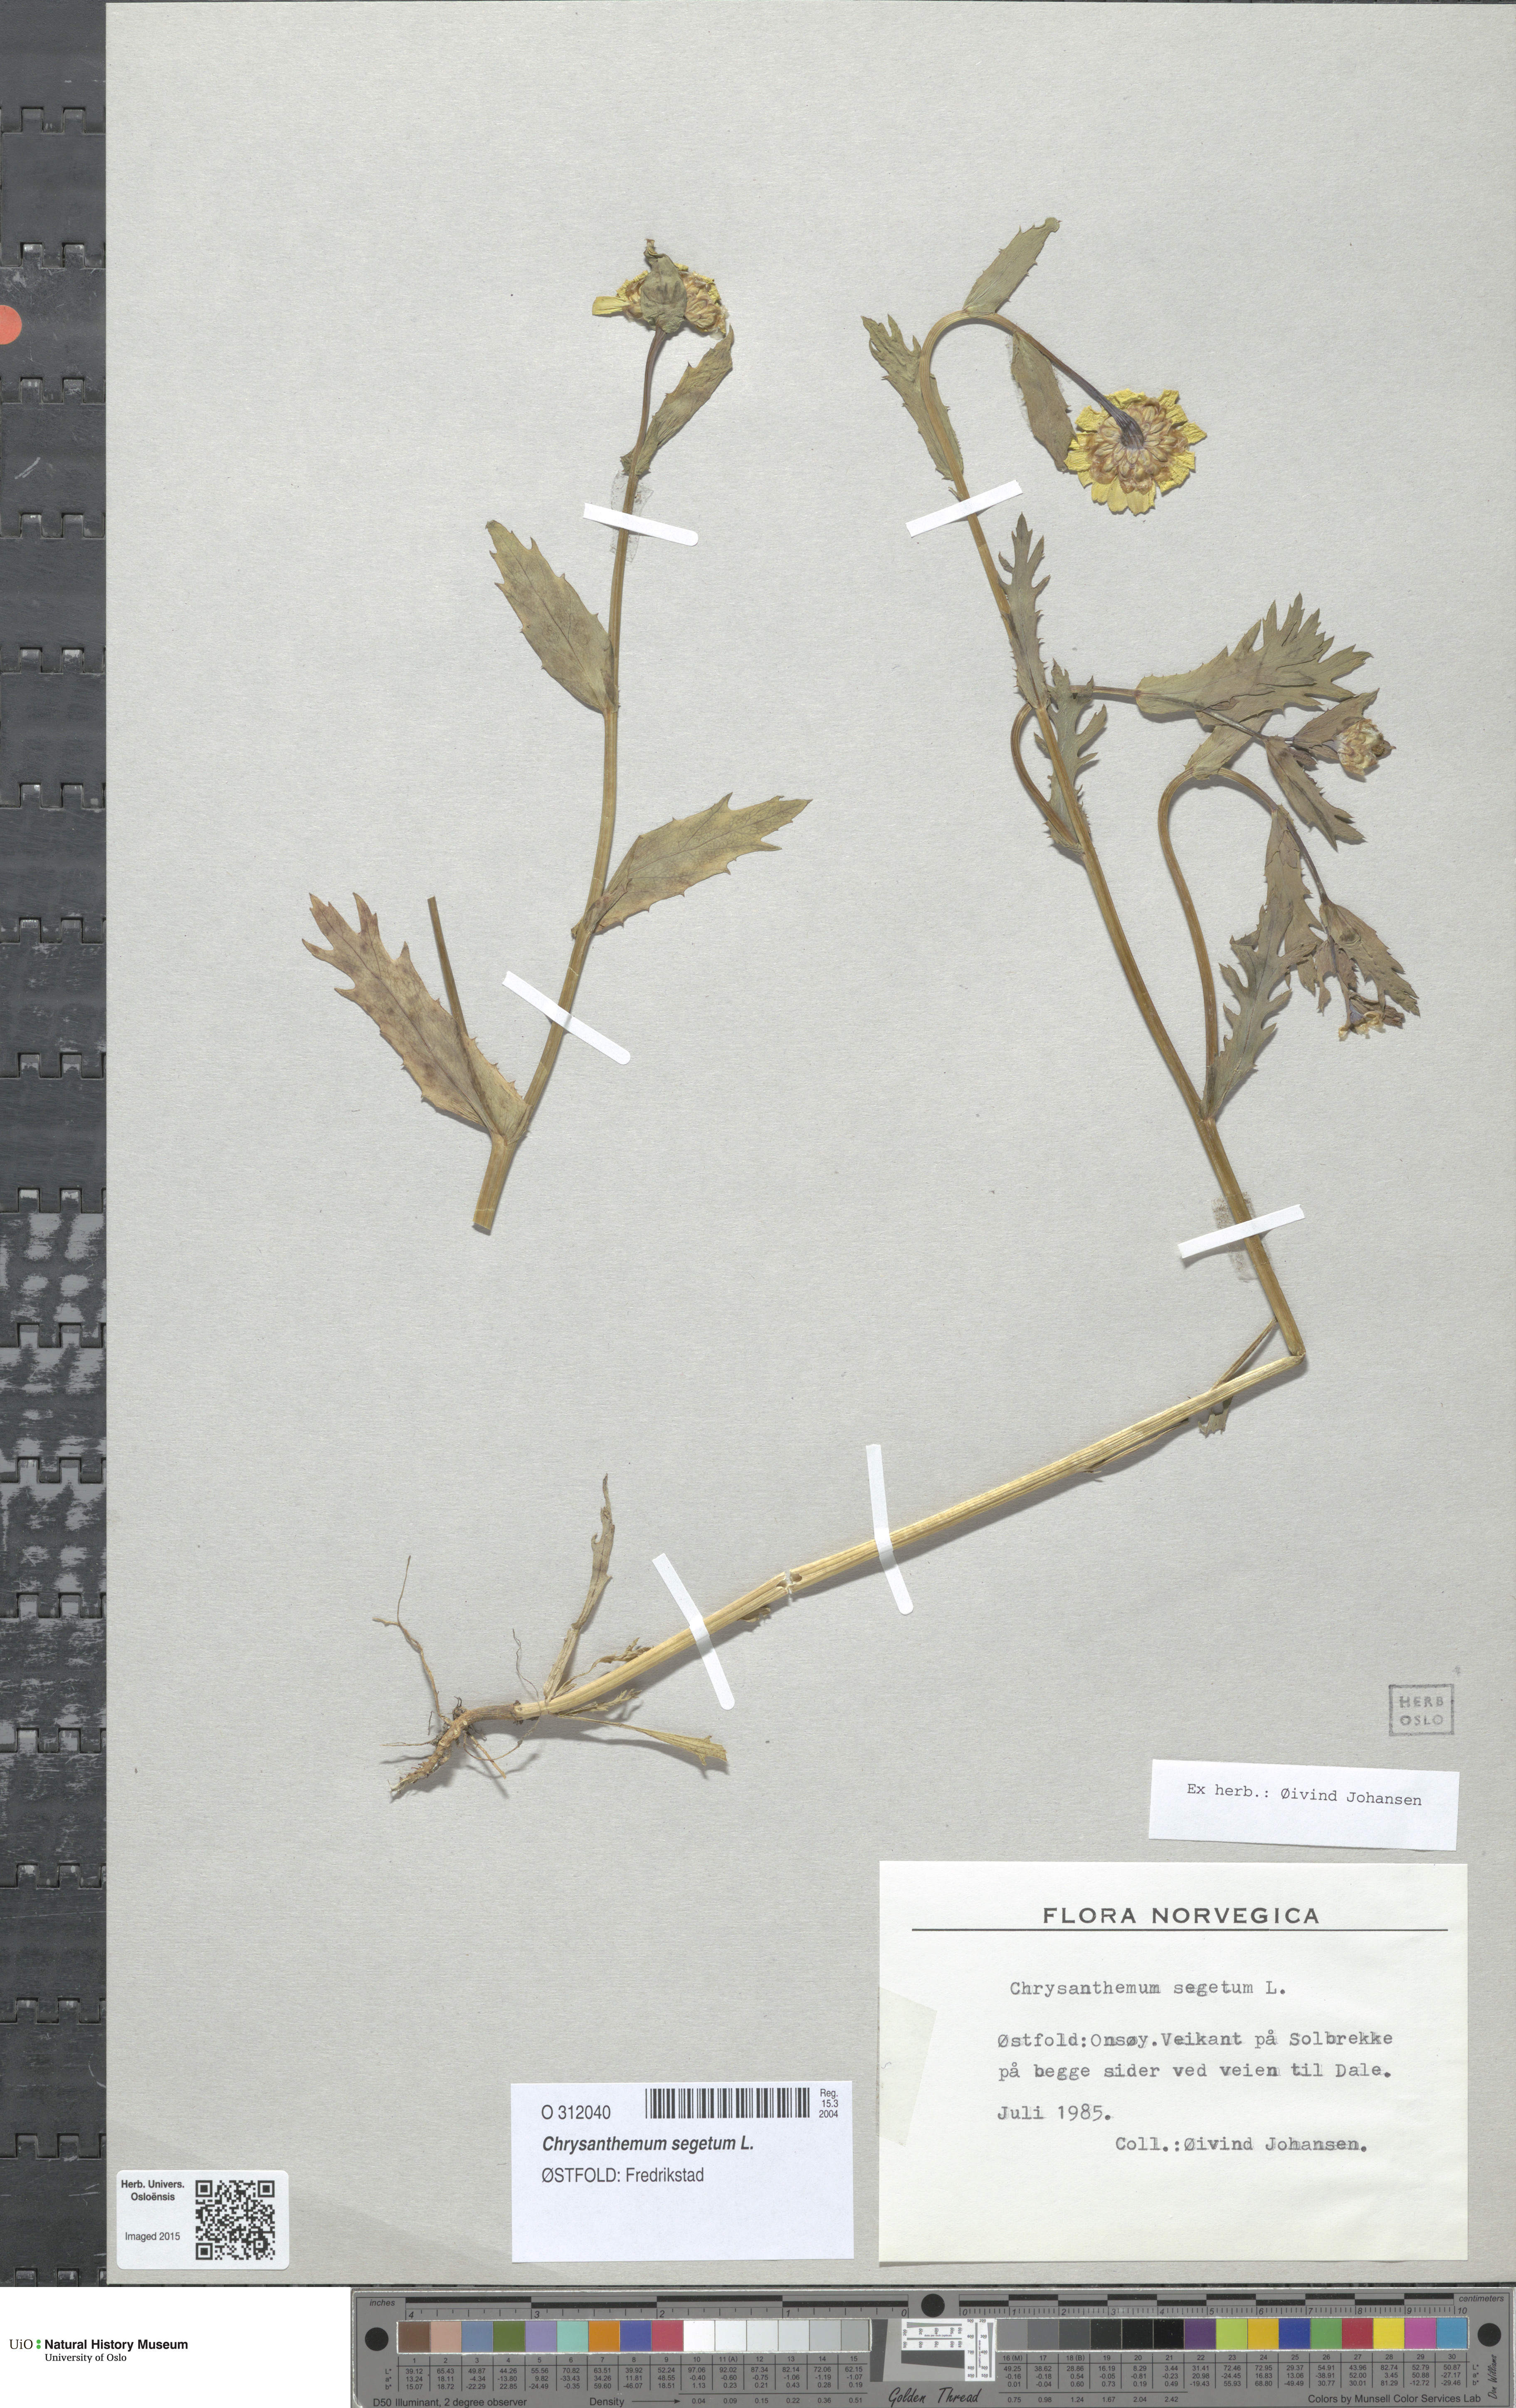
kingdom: Plantae
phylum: Tracheophyta
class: Magnoliopsida
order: Asterales
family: Asteraceae
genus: Glebionis
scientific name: Glebionis segetum
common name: Corndaisy
